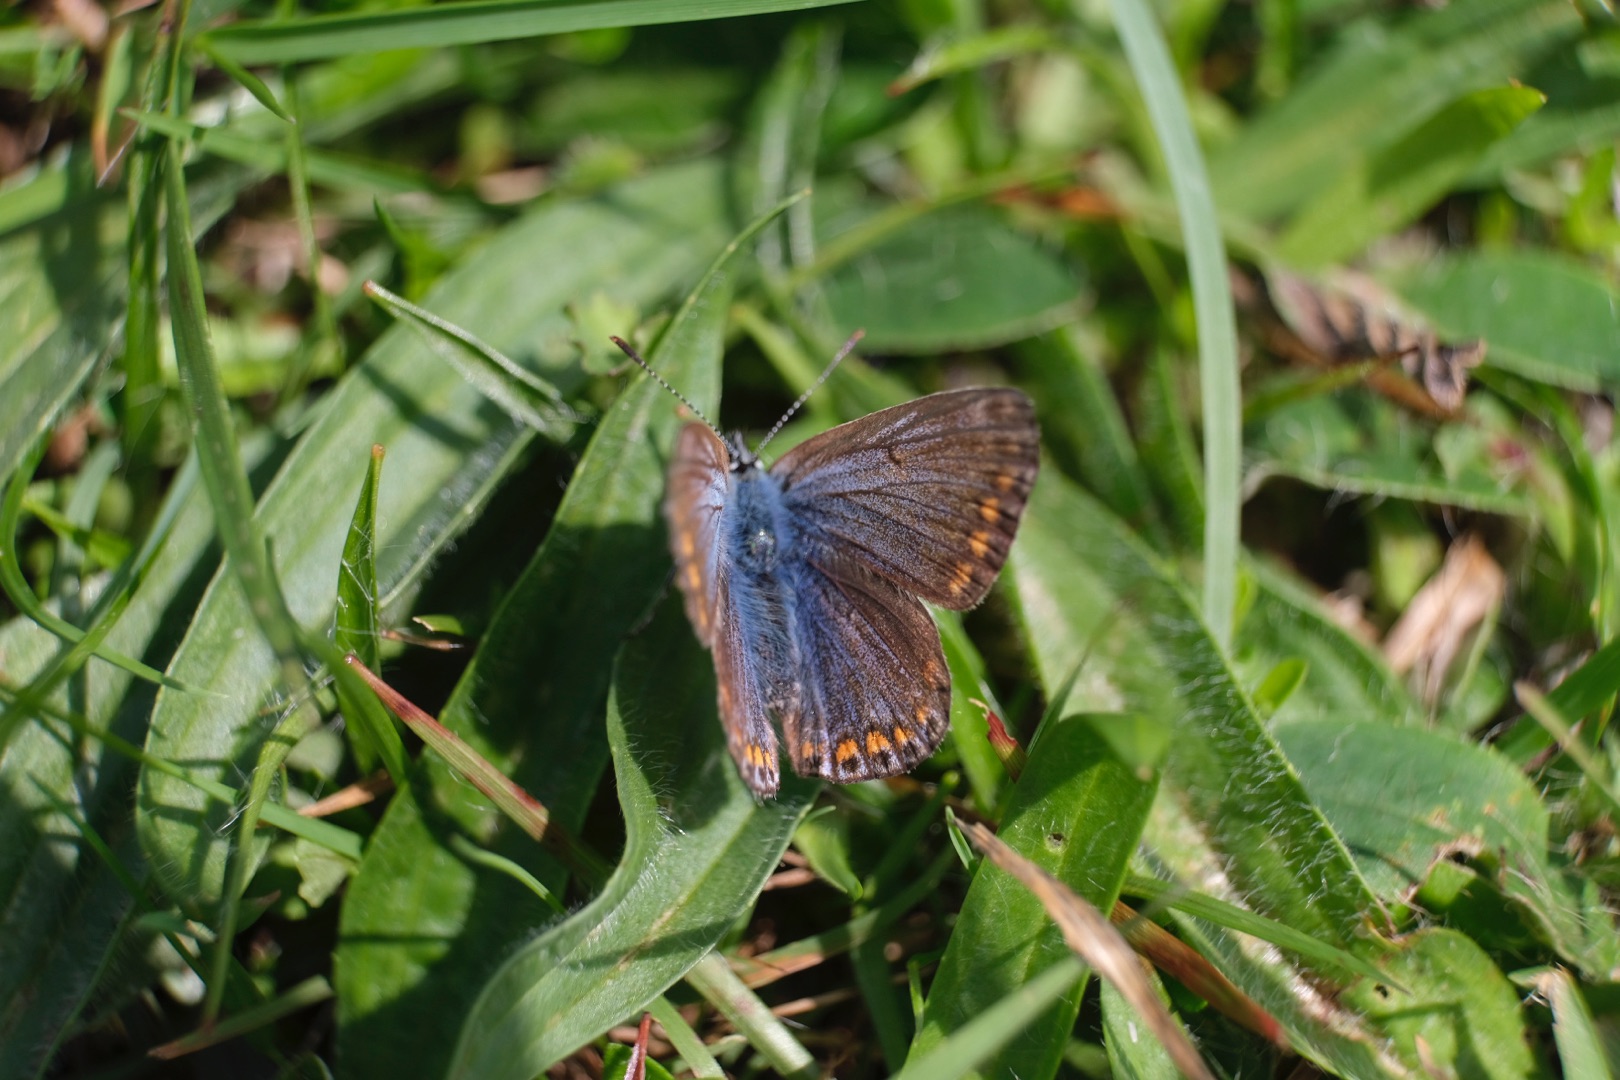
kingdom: Animalia
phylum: Arthropoda
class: Insecta
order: Lepidoptera
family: Lycaenidae
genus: Polyommatus
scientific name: Polyommatus icarus
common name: Almindelig blåfugl
